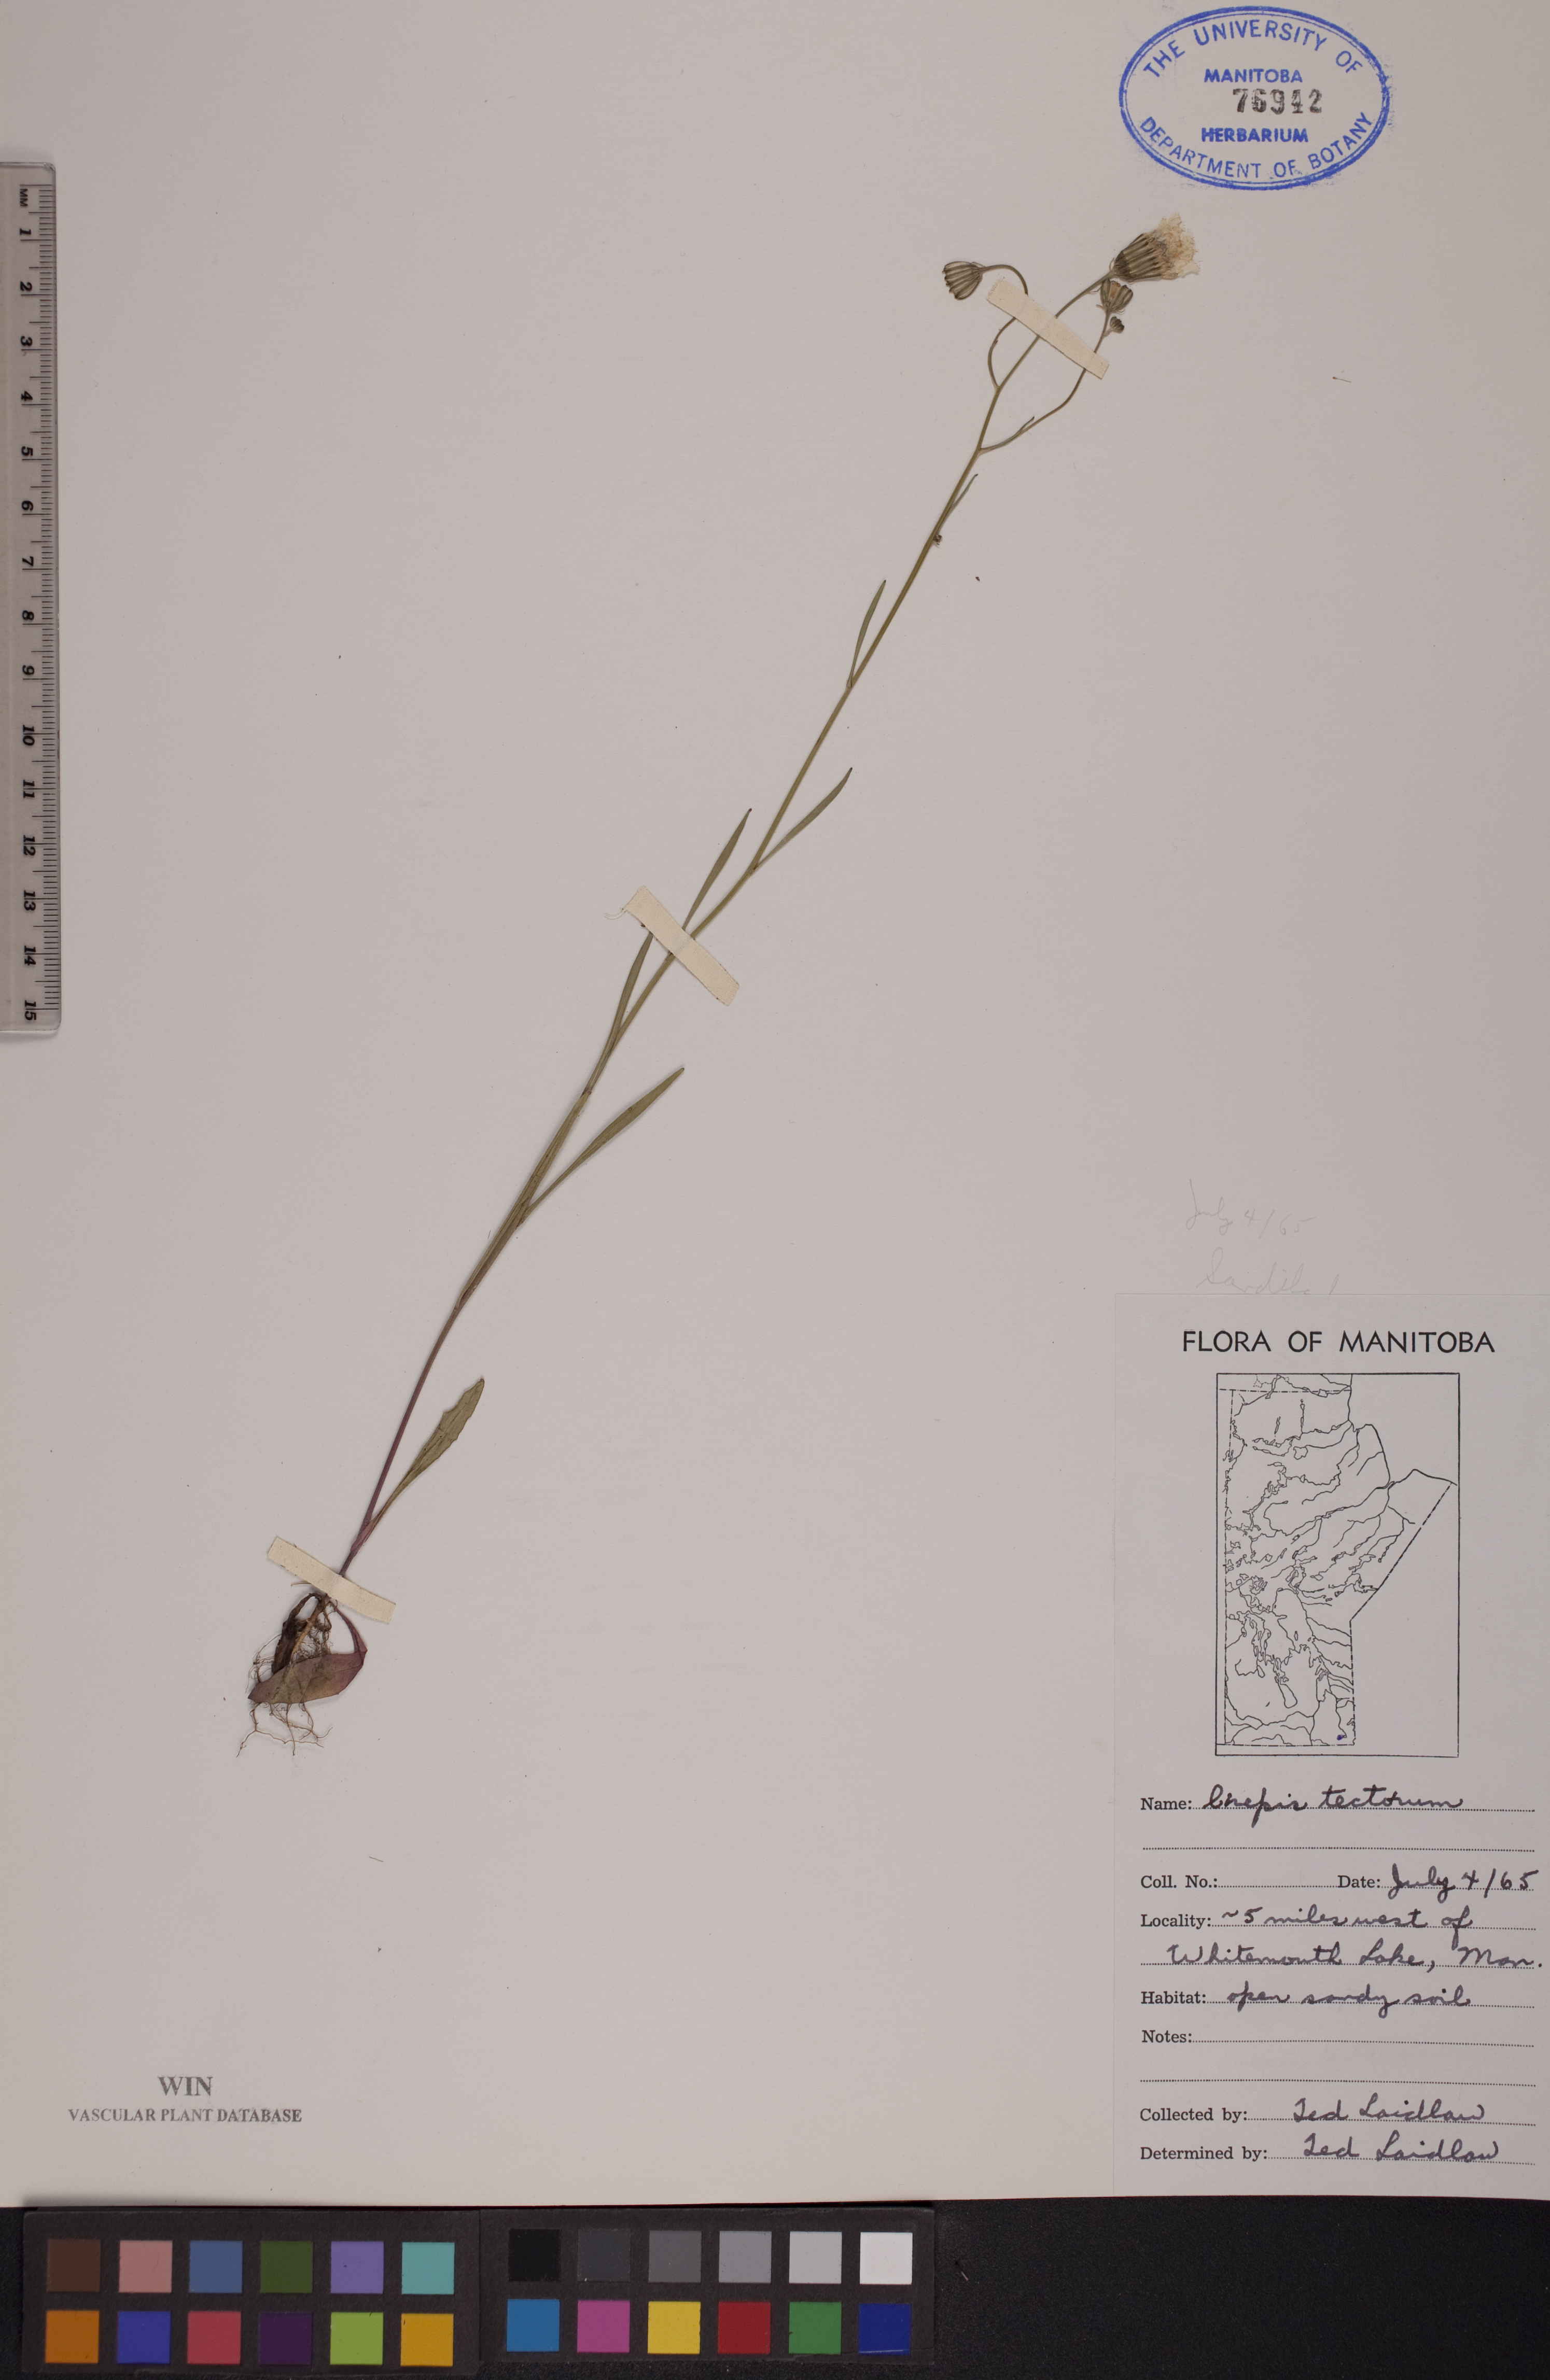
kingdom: Plantae
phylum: Tracheophyta
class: Magnoliopsida
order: Asterales
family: Asteraceae
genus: Crepis
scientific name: Crepis tectorum
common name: Narrow-leaved hawk's-beard
